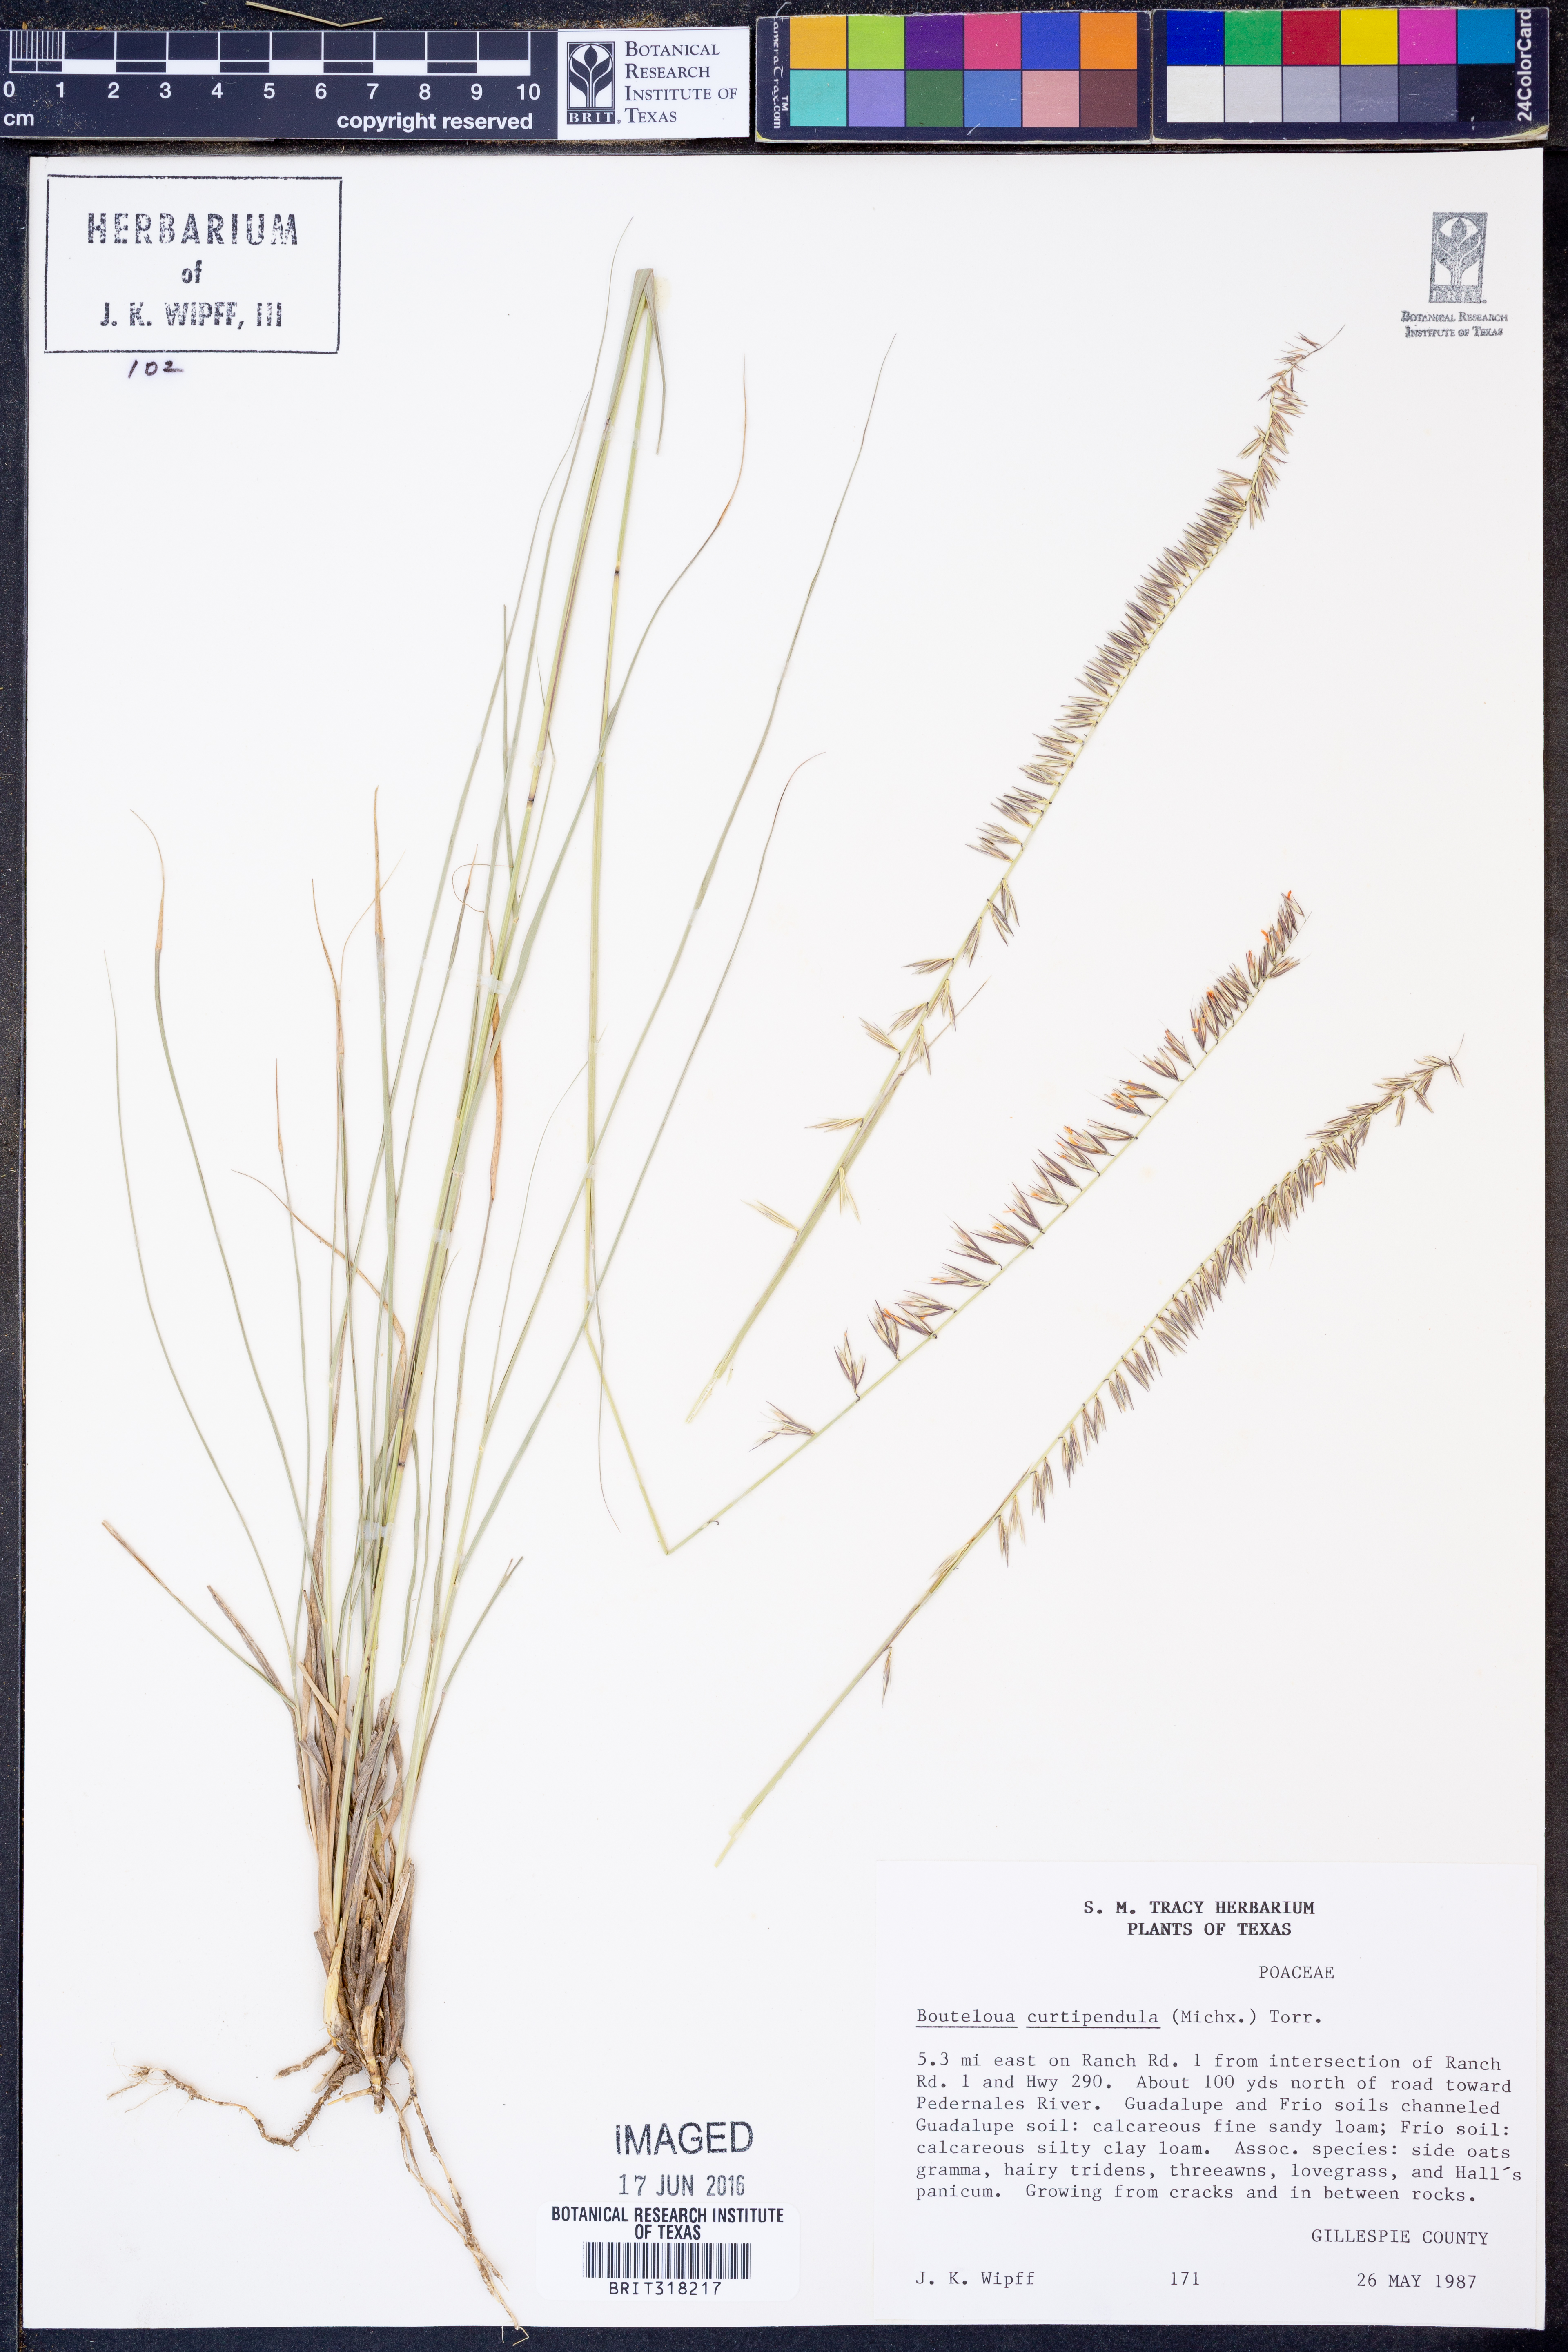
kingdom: Plantae
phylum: Tracheophyta
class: Liliopsida
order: Poales
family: Poaceae
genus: Bouteloua
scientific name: Bouteloua curtipendula
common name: Side-oats grama
